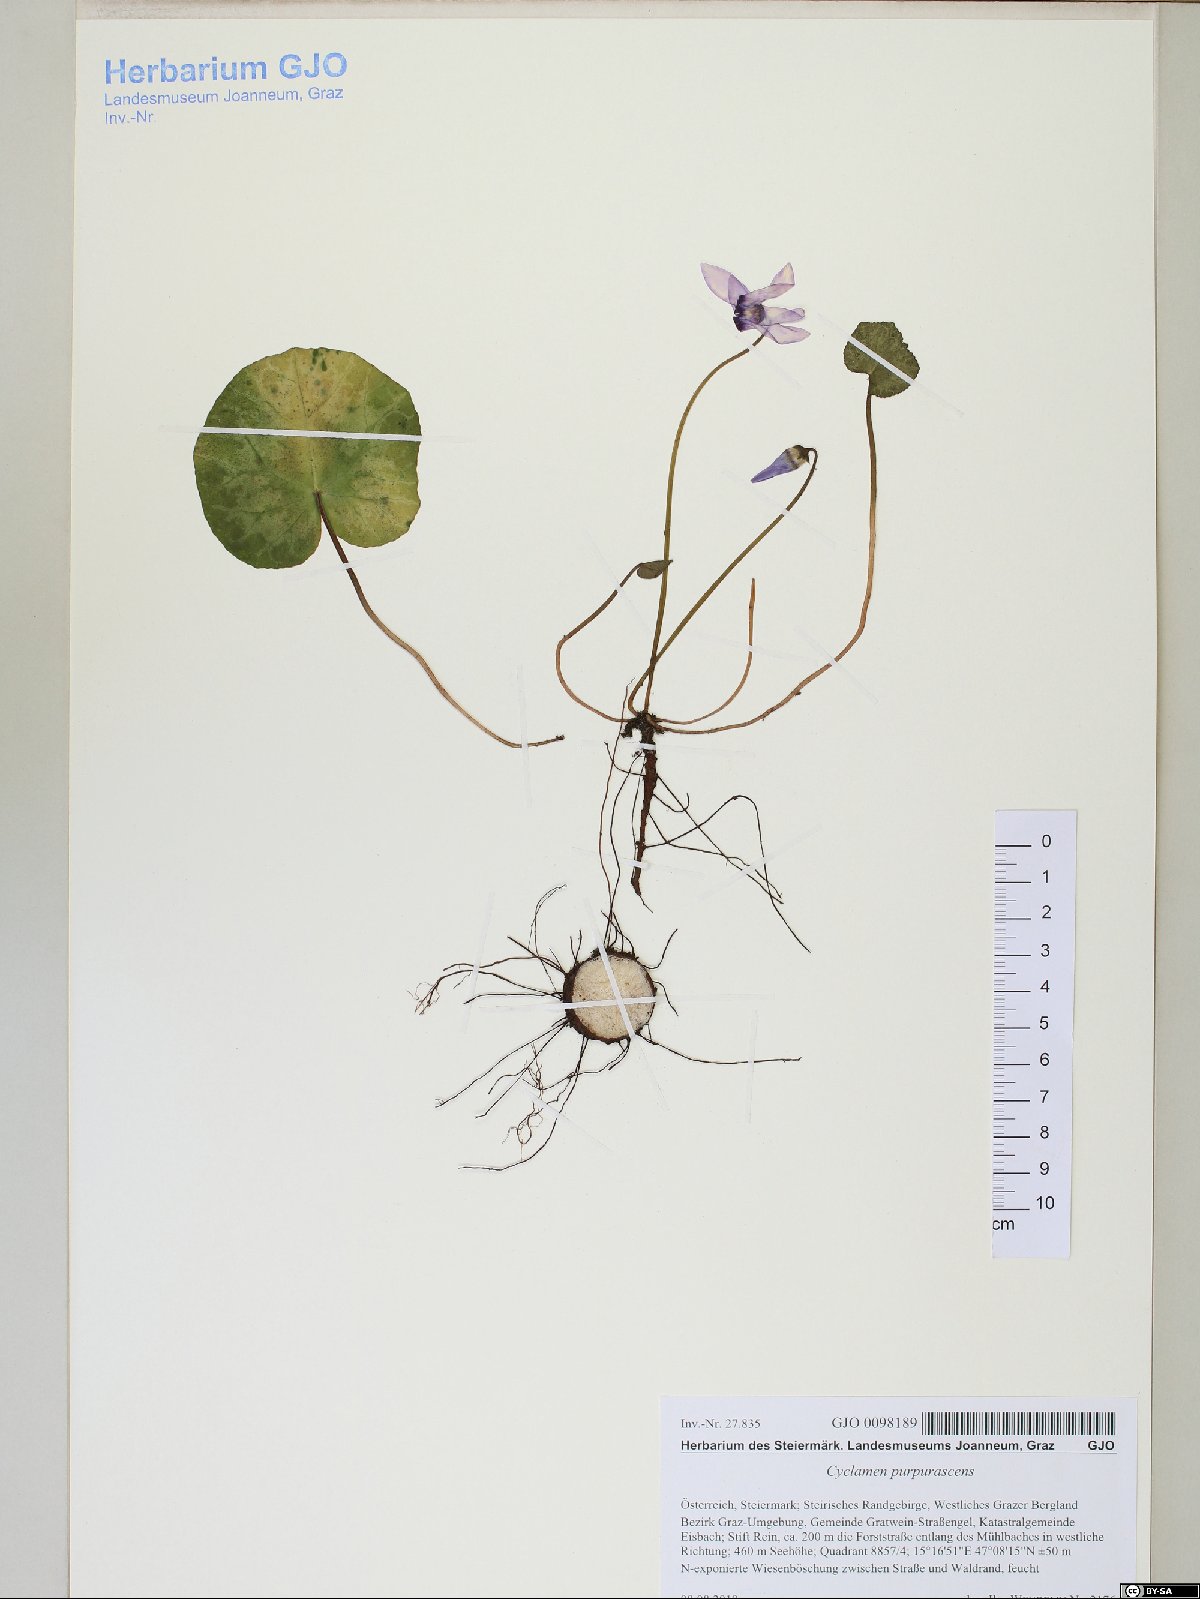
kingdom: Plantae
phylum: Tracheophyta
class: Magnoliopsida
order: Ericales
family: Primulaceae
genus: Cyclamen
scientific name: Cyclamen purpurascens
